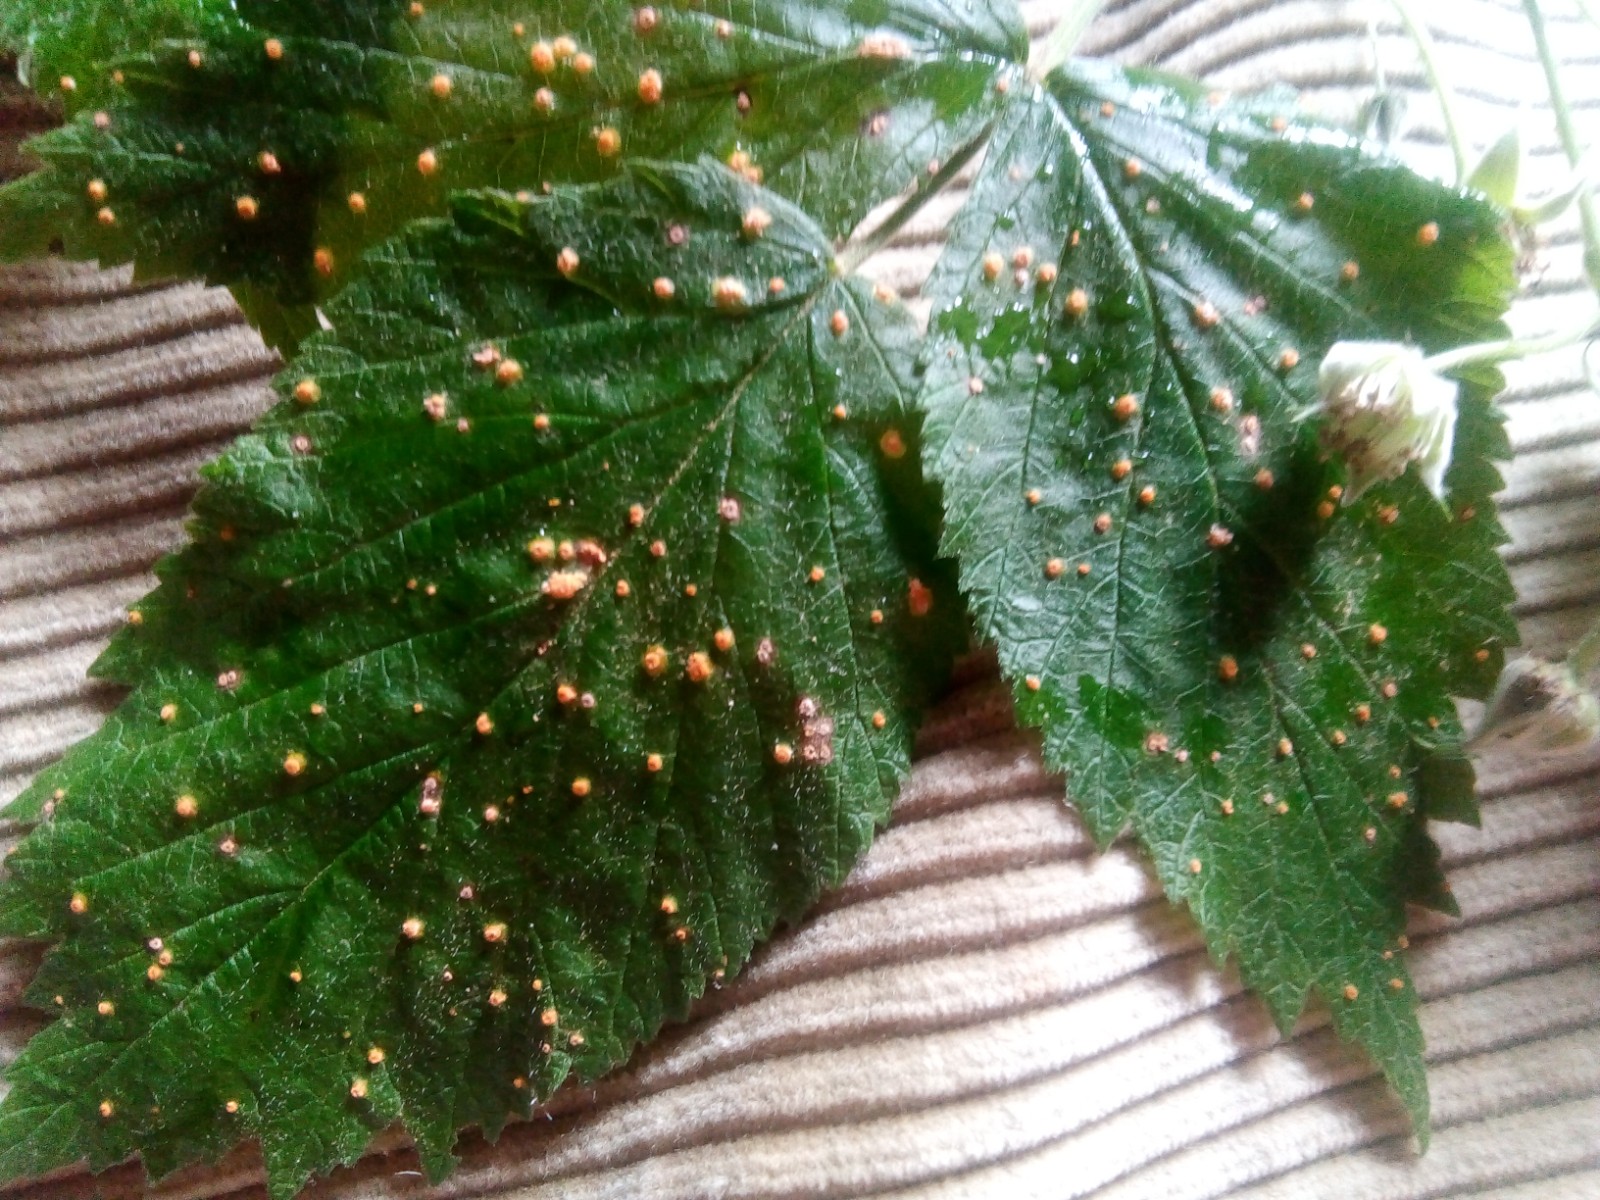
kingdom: Fungi
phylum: Basidiomycota
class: Pucciniomycetes
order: Pucciniales
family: Phragmidiaceae
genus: Phragmidium
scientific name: Phragmidium rubi-idaei
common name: hindbær-flercellerust
